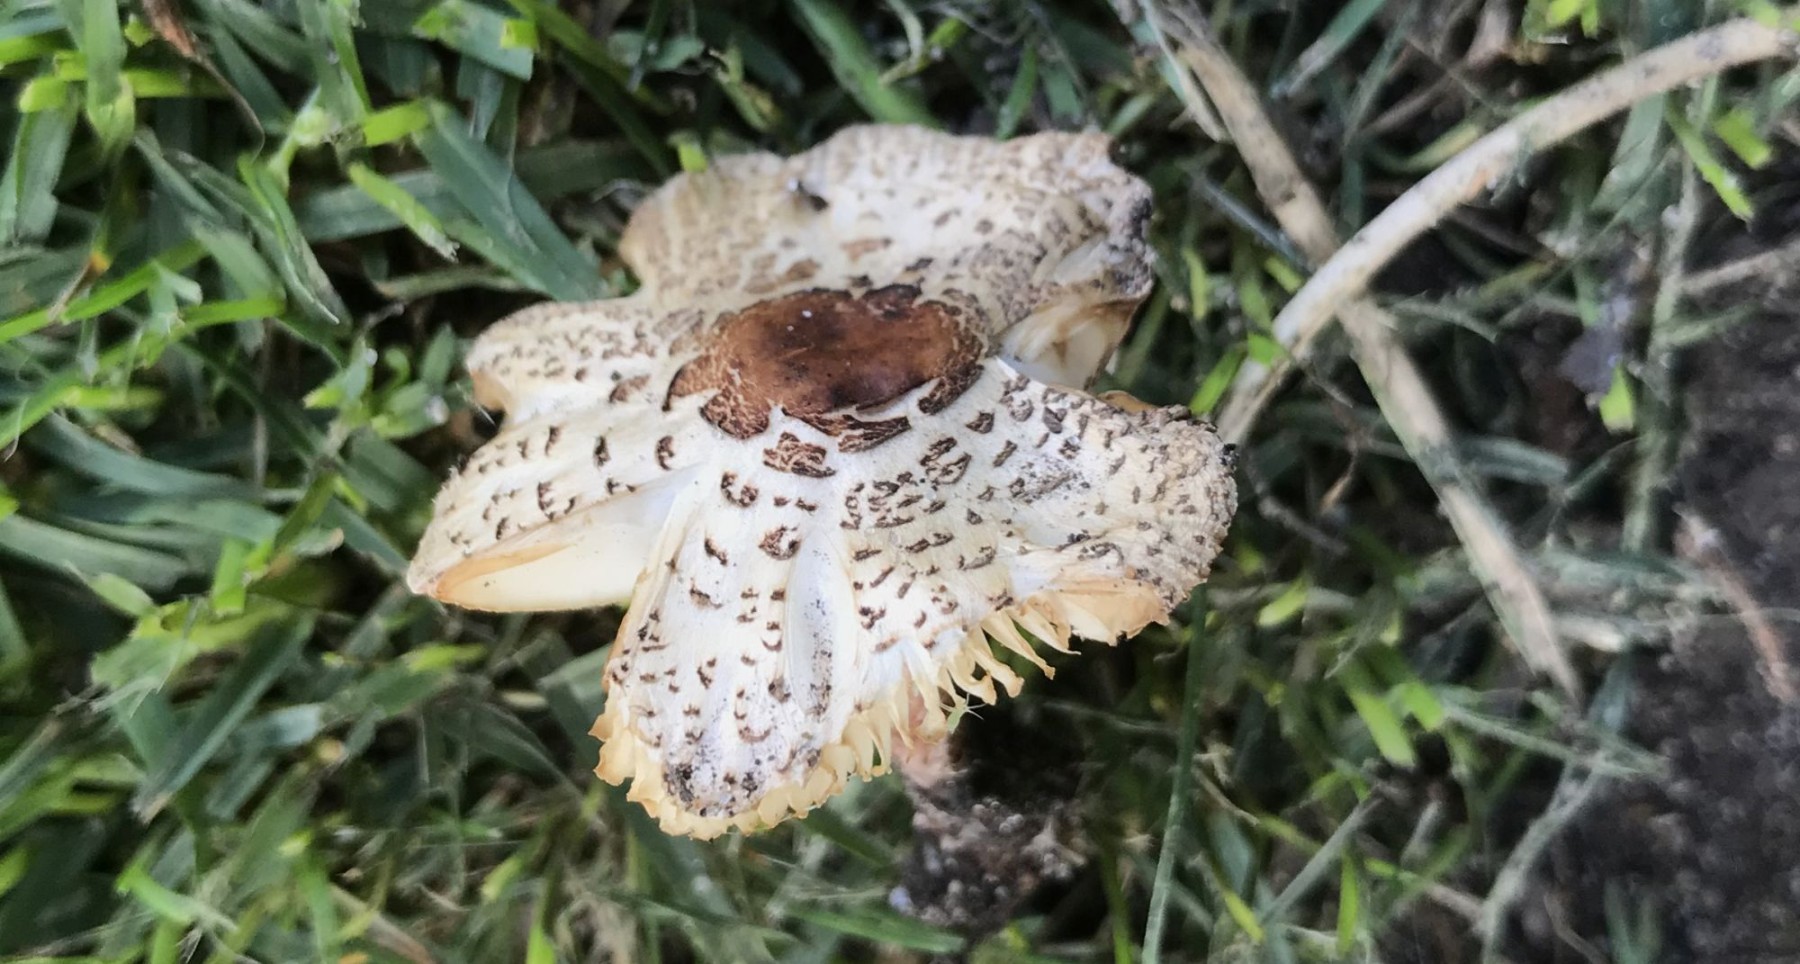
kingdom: Fungi
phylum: Basidiomycota
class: Agaricomycetes
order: Agaricales
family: Agaricaceae
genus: Lepiota
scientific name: Lepiota lilacea
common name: lillabrun parasolhat
